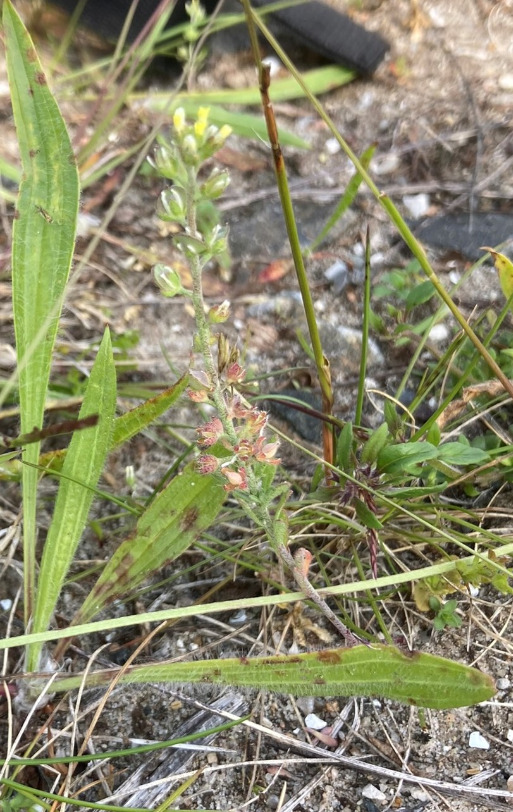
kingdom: Plantae
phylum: Tracheophyta
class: Magnoliopsida
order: Brassicales
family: Brassicaceae
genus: Alyssum
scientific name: Alyssum alyssoides
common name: Grådodder
